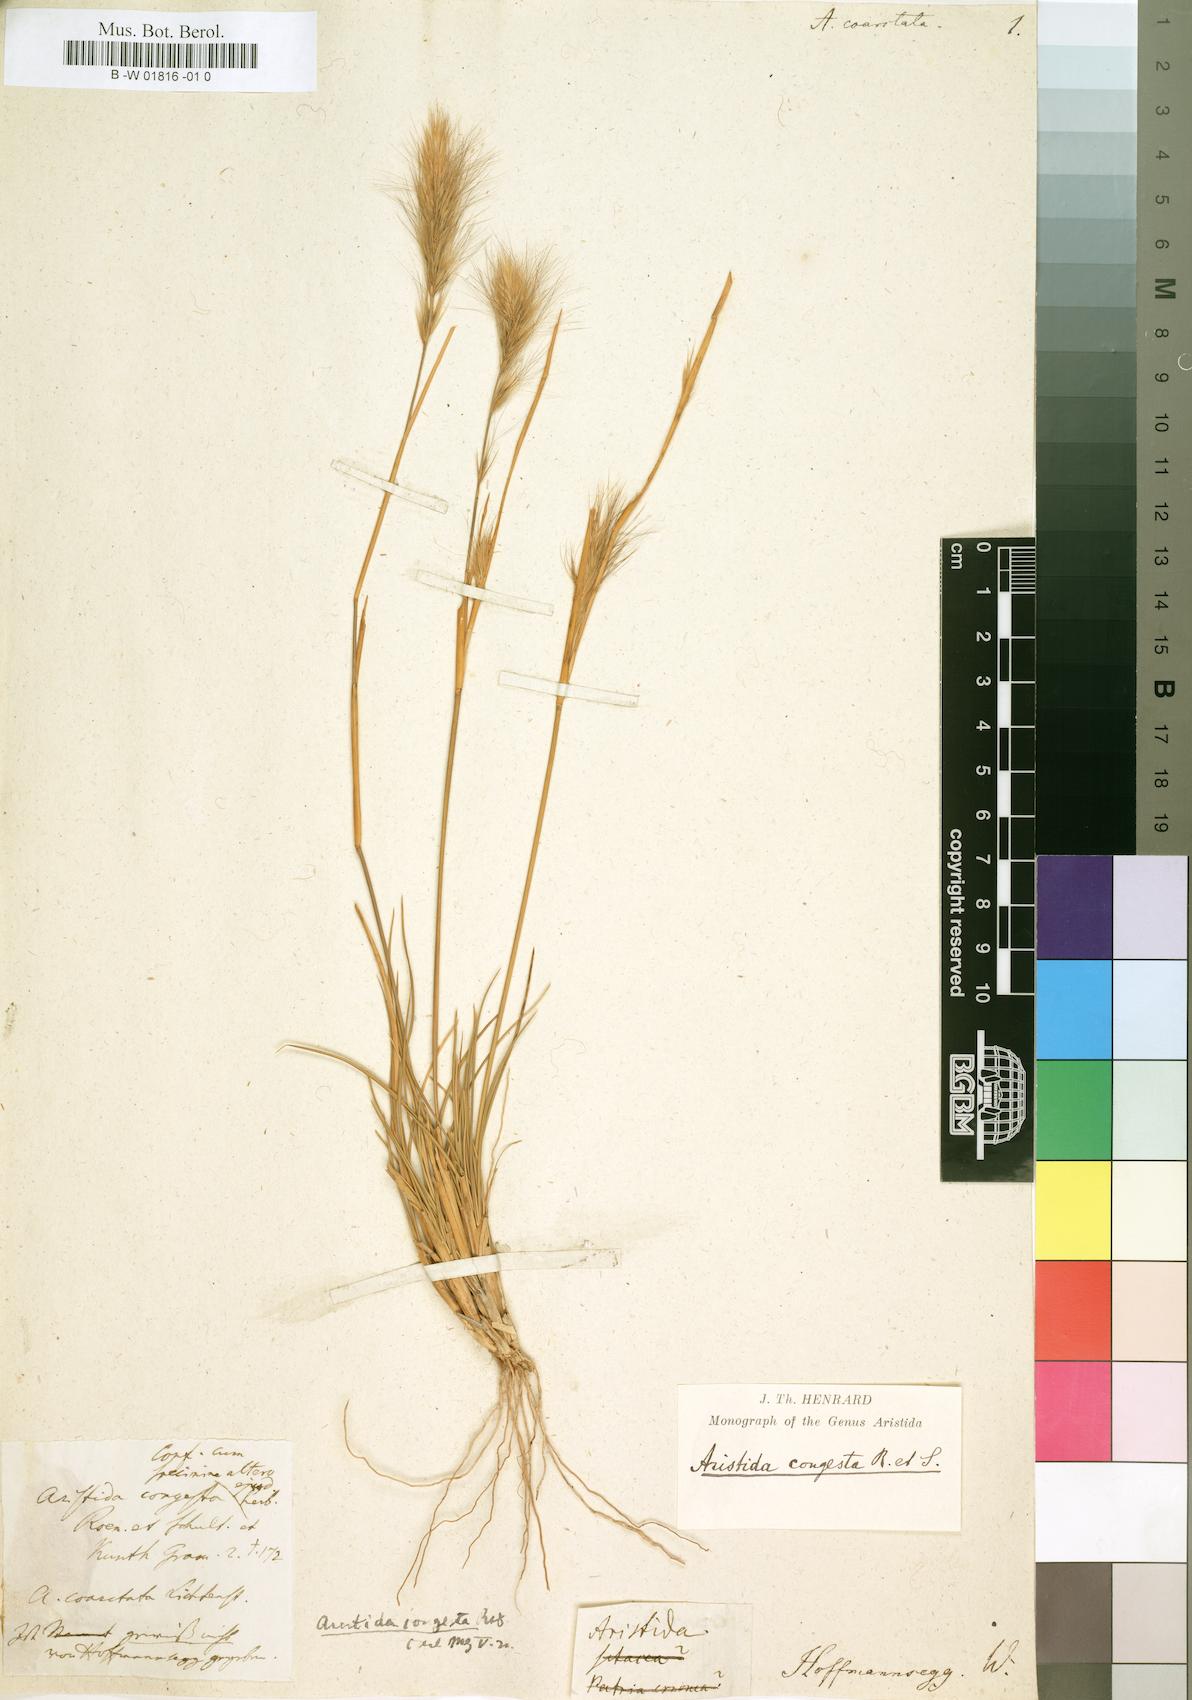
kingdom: Plantae
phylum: Tracheophyta
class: Liliopsida
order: Poales
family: Poaceae
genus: Aristida
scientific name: Aristida adscensionis
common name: Sixweeks threeawn
